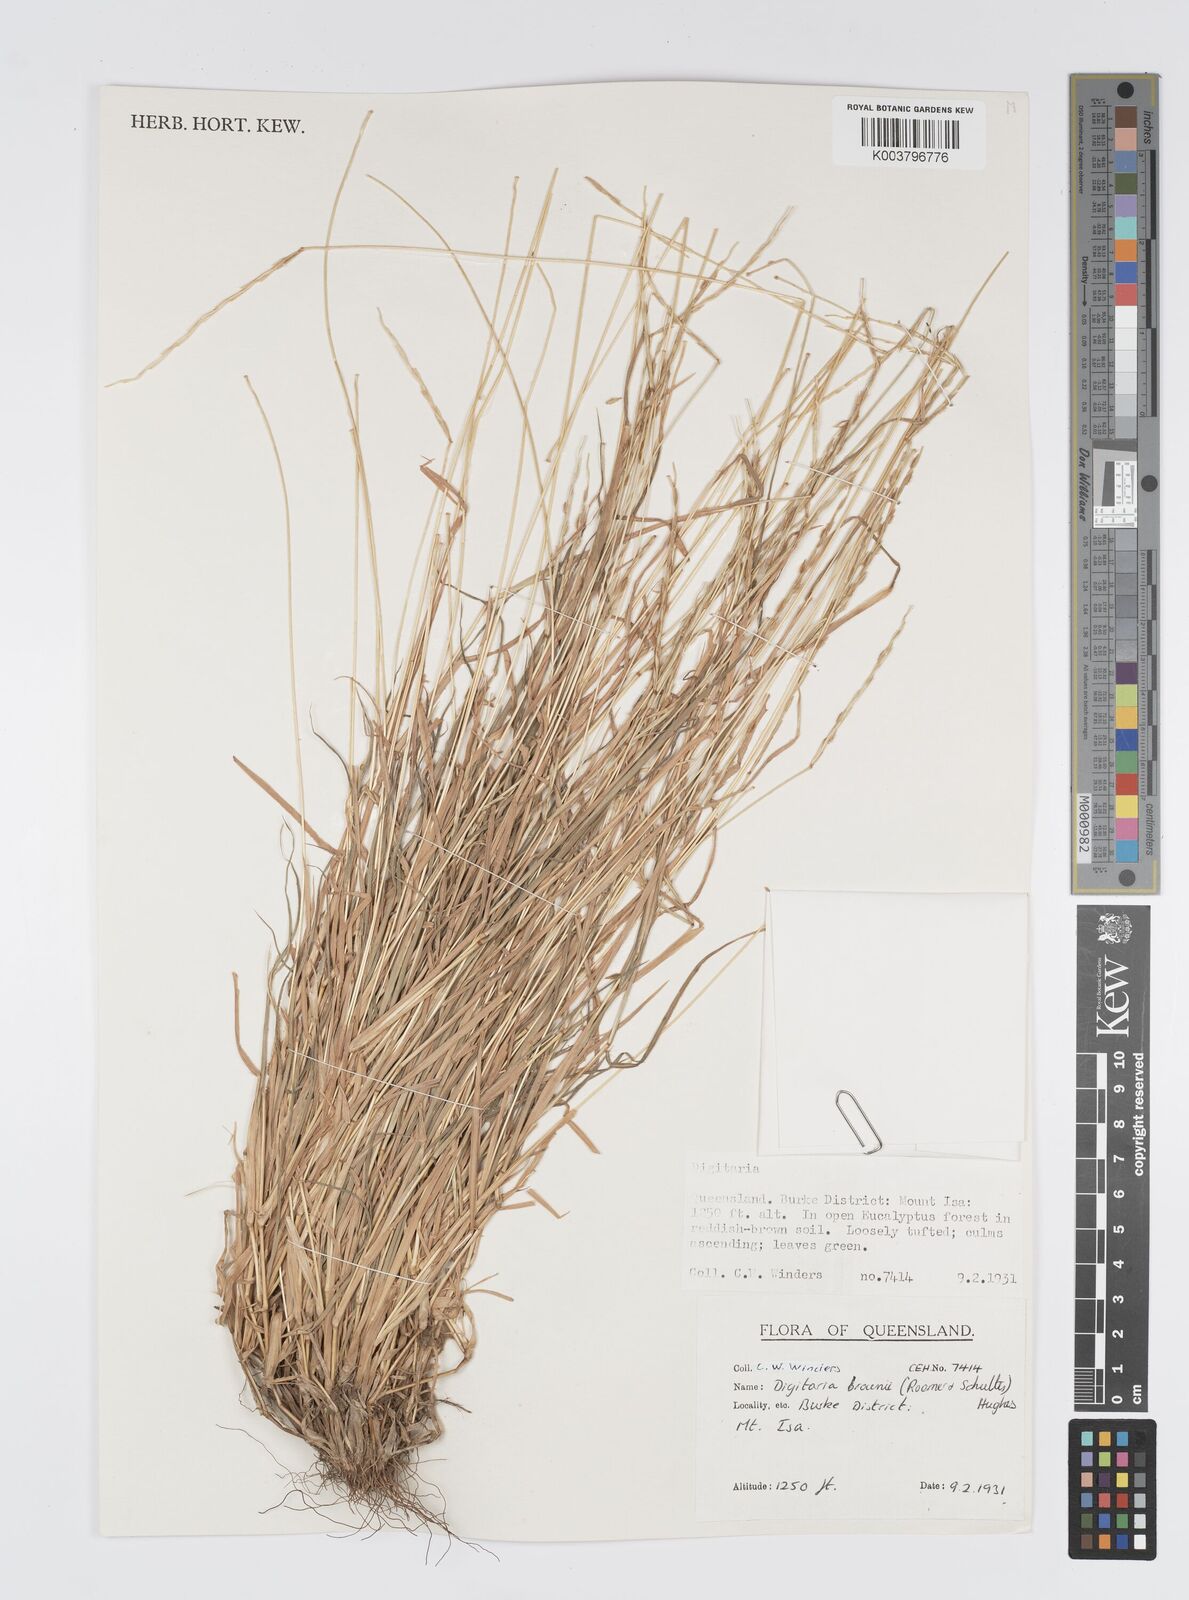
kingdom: Plantae
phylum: Tracheophyta
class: Liliopsida
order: Poales
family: Poaceae
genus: Digitaria
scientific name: Digitaria brownii
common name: Cotton grass
